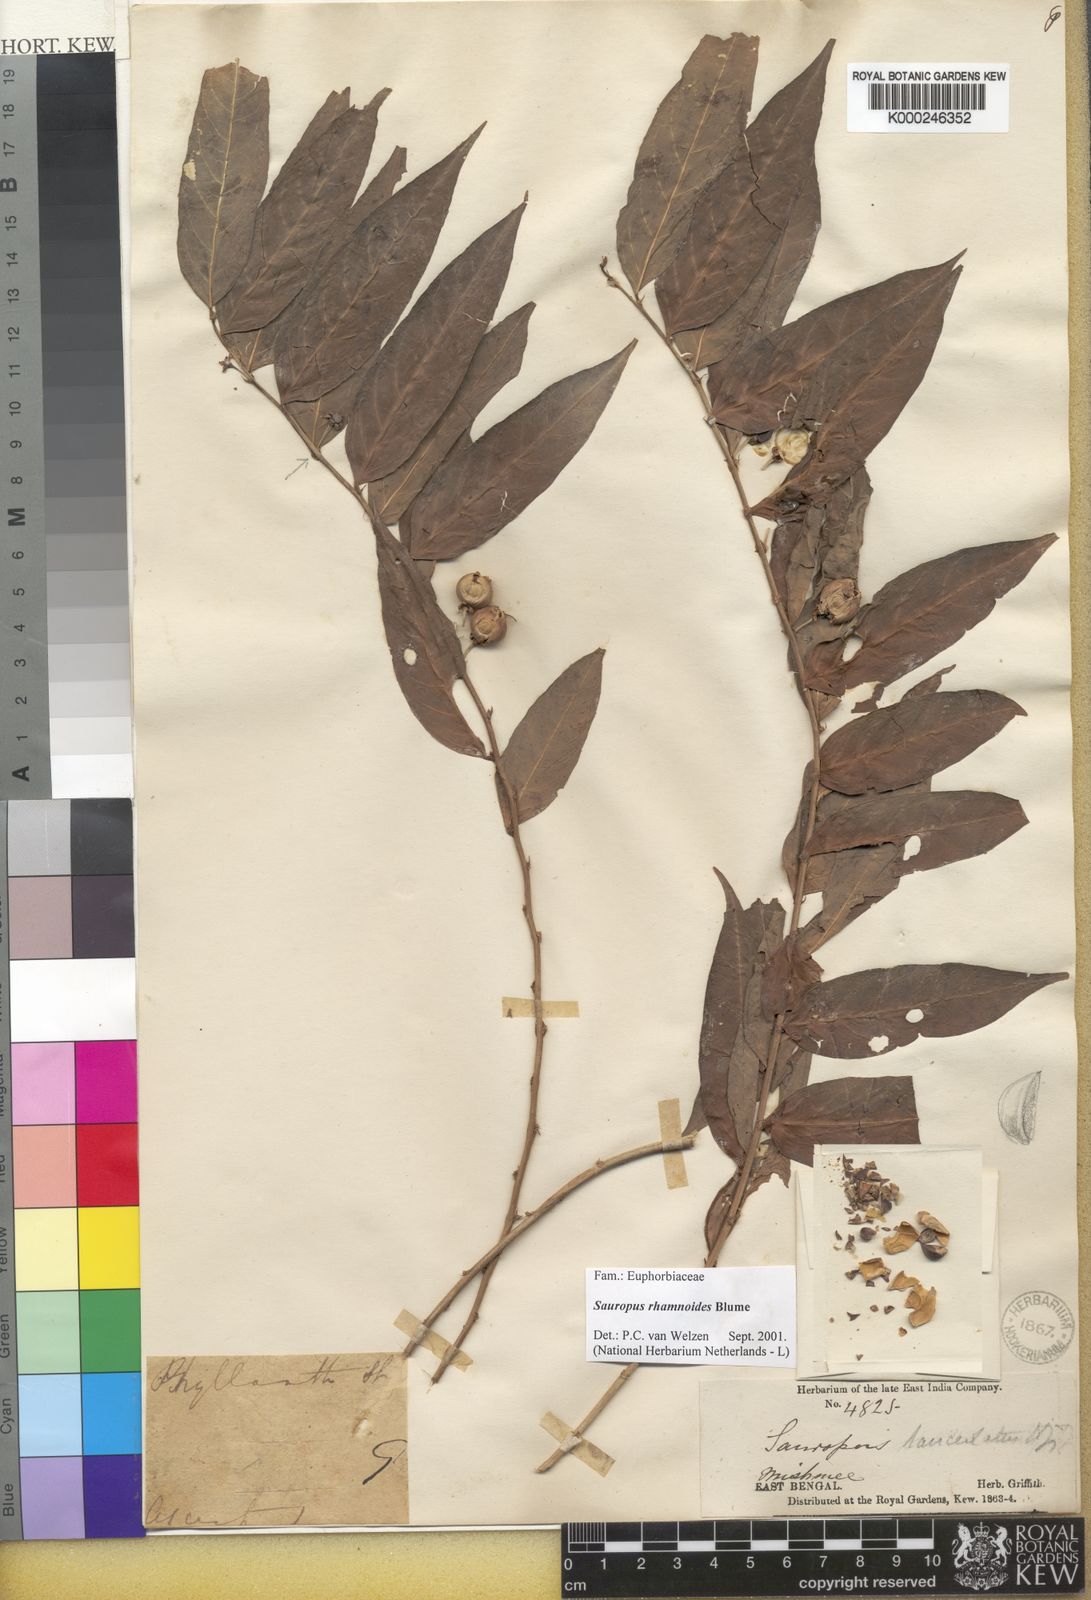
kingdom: Plantae
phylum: Tracheophyta
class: Magnoliopsida
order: Malpighiales
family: Phyllanthaceae
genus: Breynia
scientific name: Breynia lanceolata
